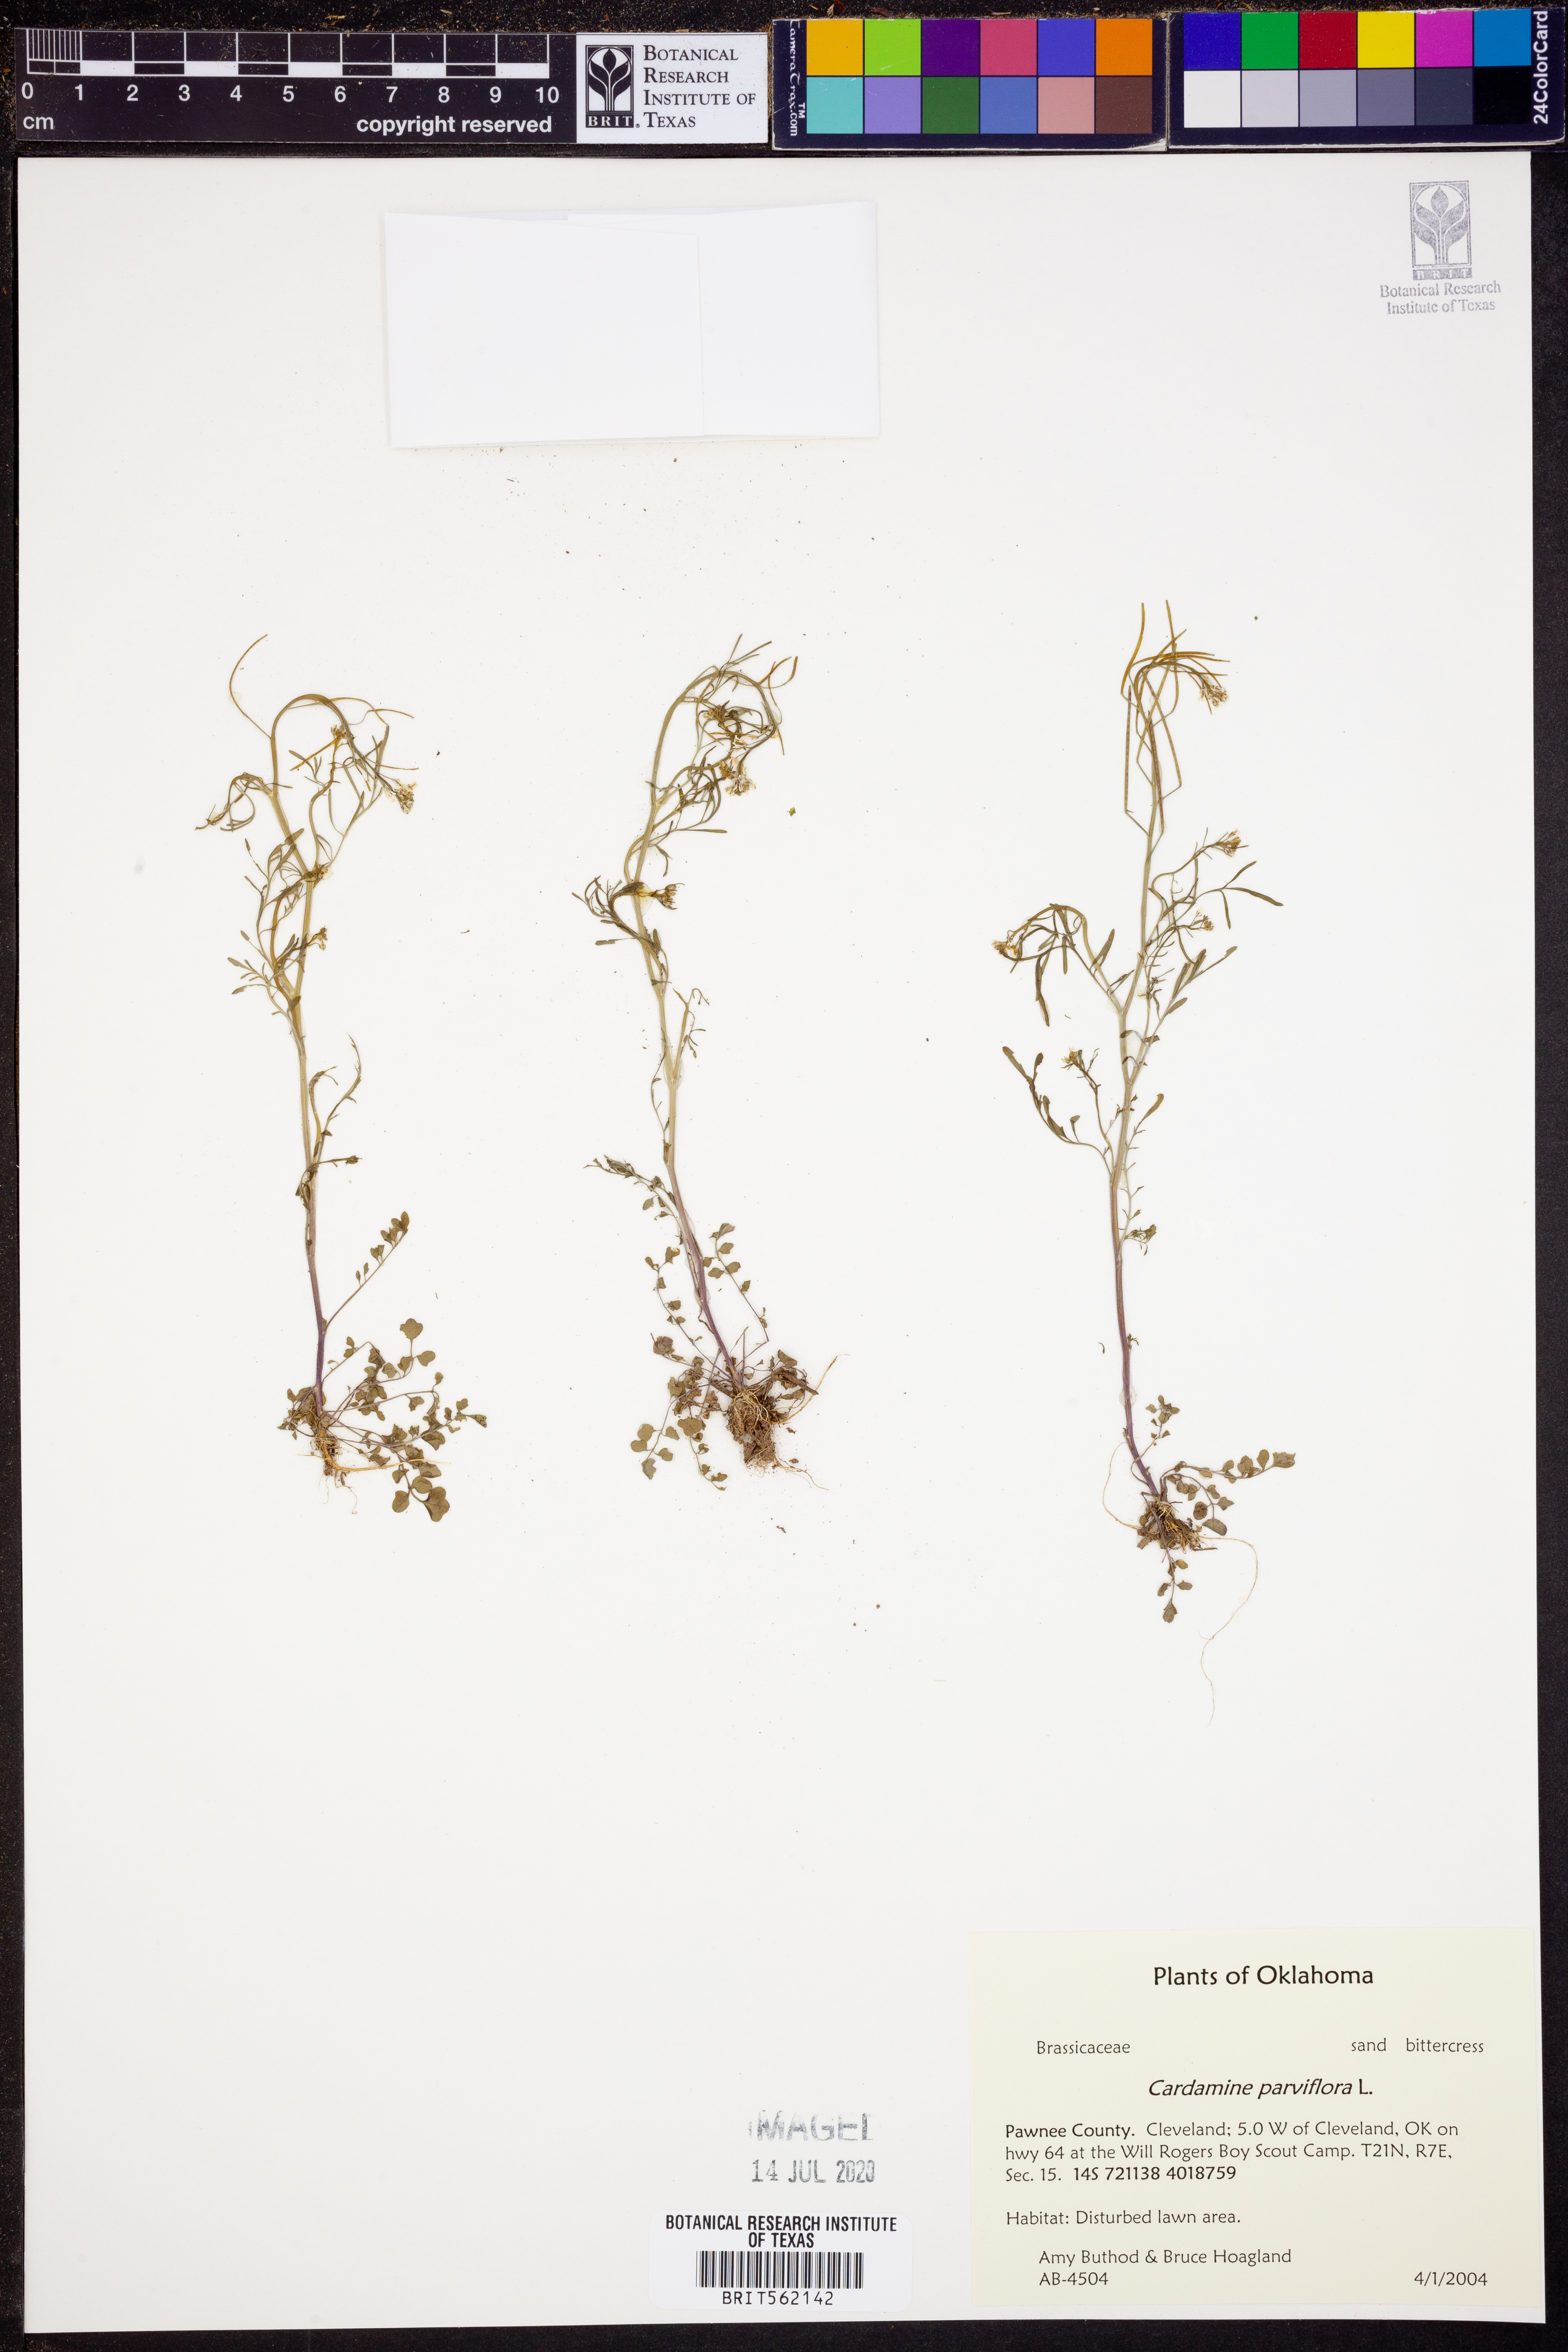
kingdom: Plantae
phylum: Tracheophyta
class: Magnoliopsida
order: Brassicales
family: Brassicaceae
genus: Cardamine
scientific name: Cardamine parviflora
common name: Sand bittercress
